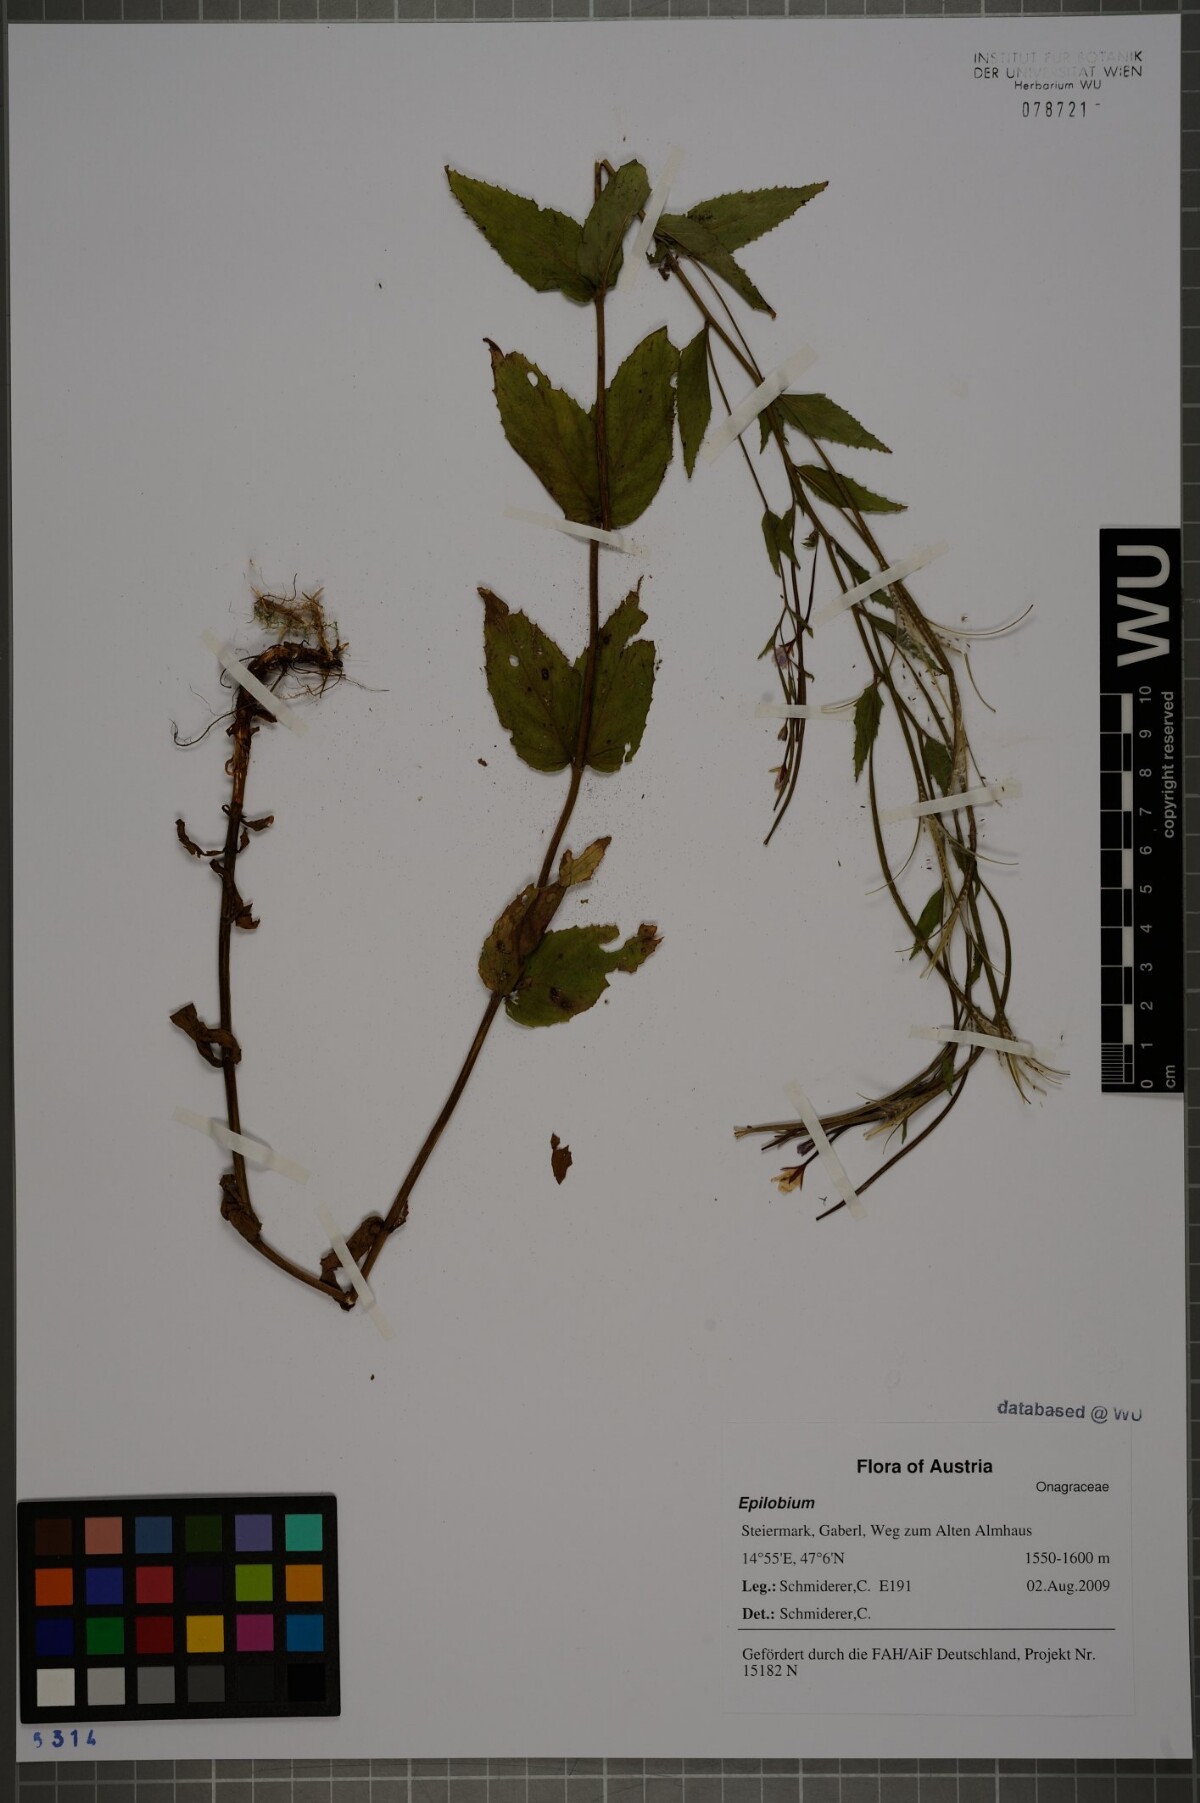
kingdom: Plantae
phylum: Tracheophyta
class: Magnoliopsida
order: Myrtales
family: Onagraceae
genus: Epilobium
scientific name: Epilobium montanum
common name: Broad-leaved willowherb
